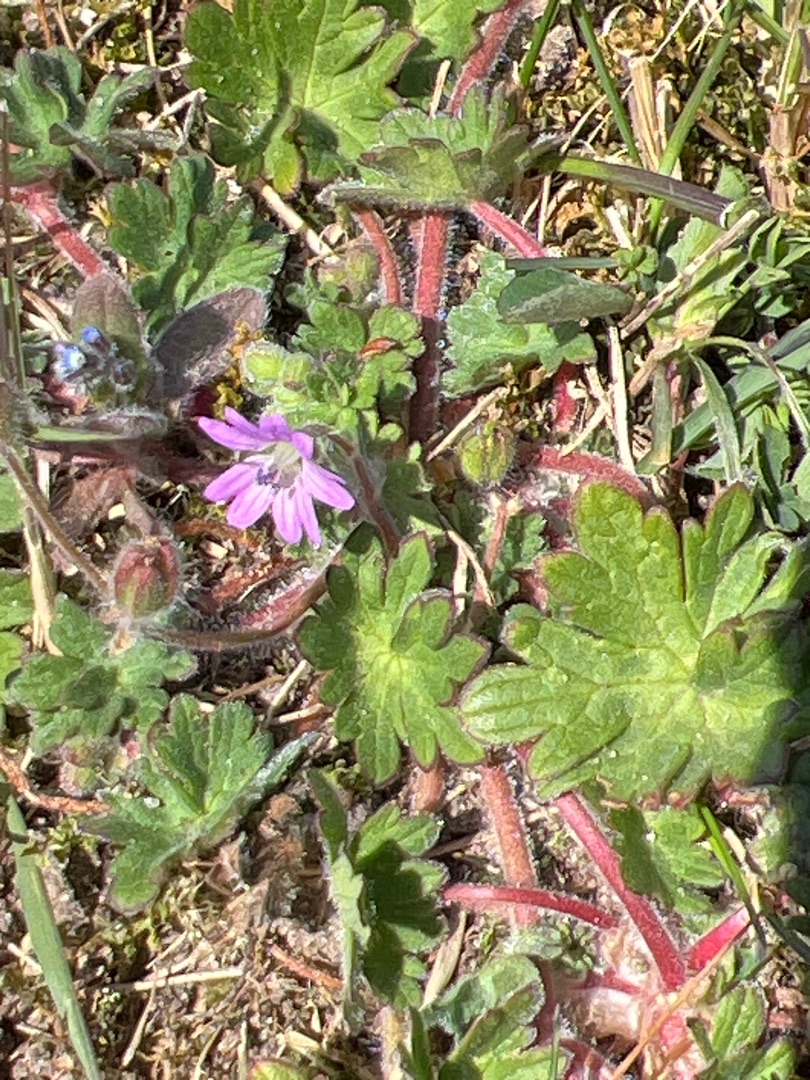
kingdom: Plantae
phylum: Tracheophyta
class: Magnoliopsida
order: Geraniales
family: Geraniaceae
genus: Geranium
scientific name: Geranium molle
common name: Blød storkenæb
